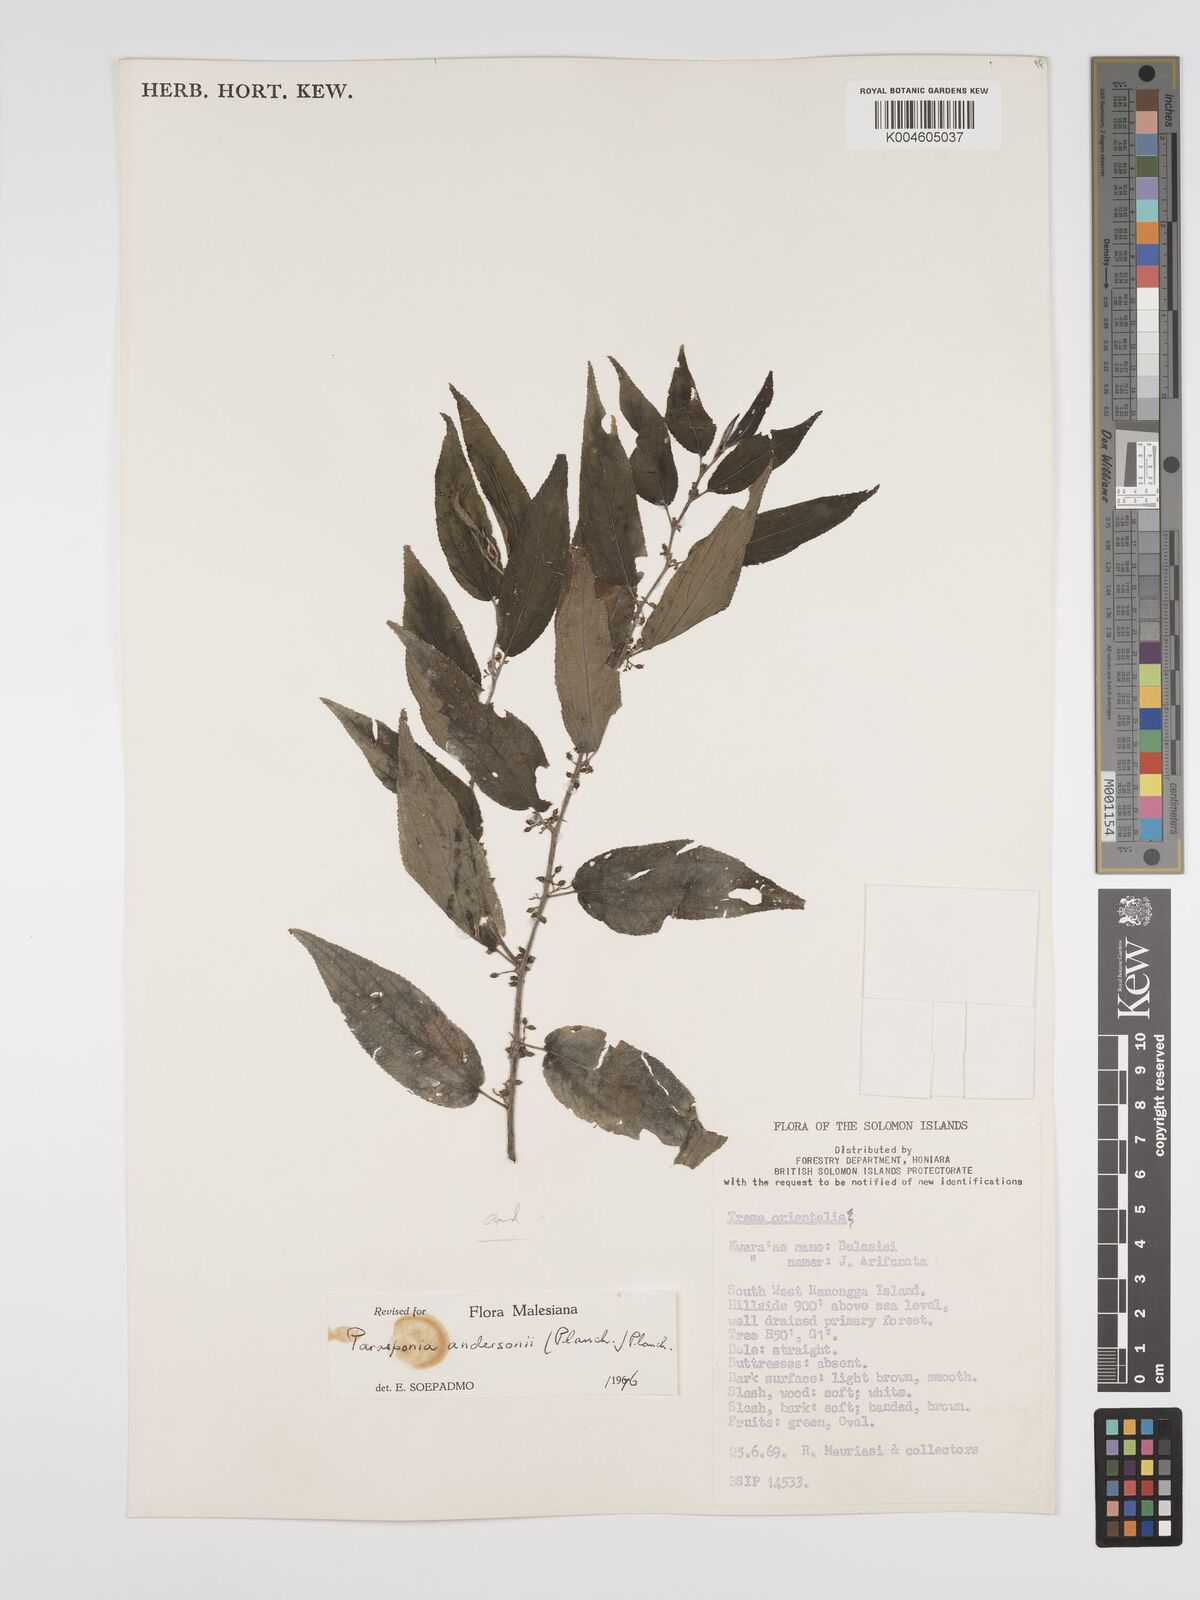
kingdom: Plantae
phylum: Tracheophyta
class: Magnoliopsida
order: Rosales
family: Cannabaceae
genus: Trema
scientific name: Trema andersonii
